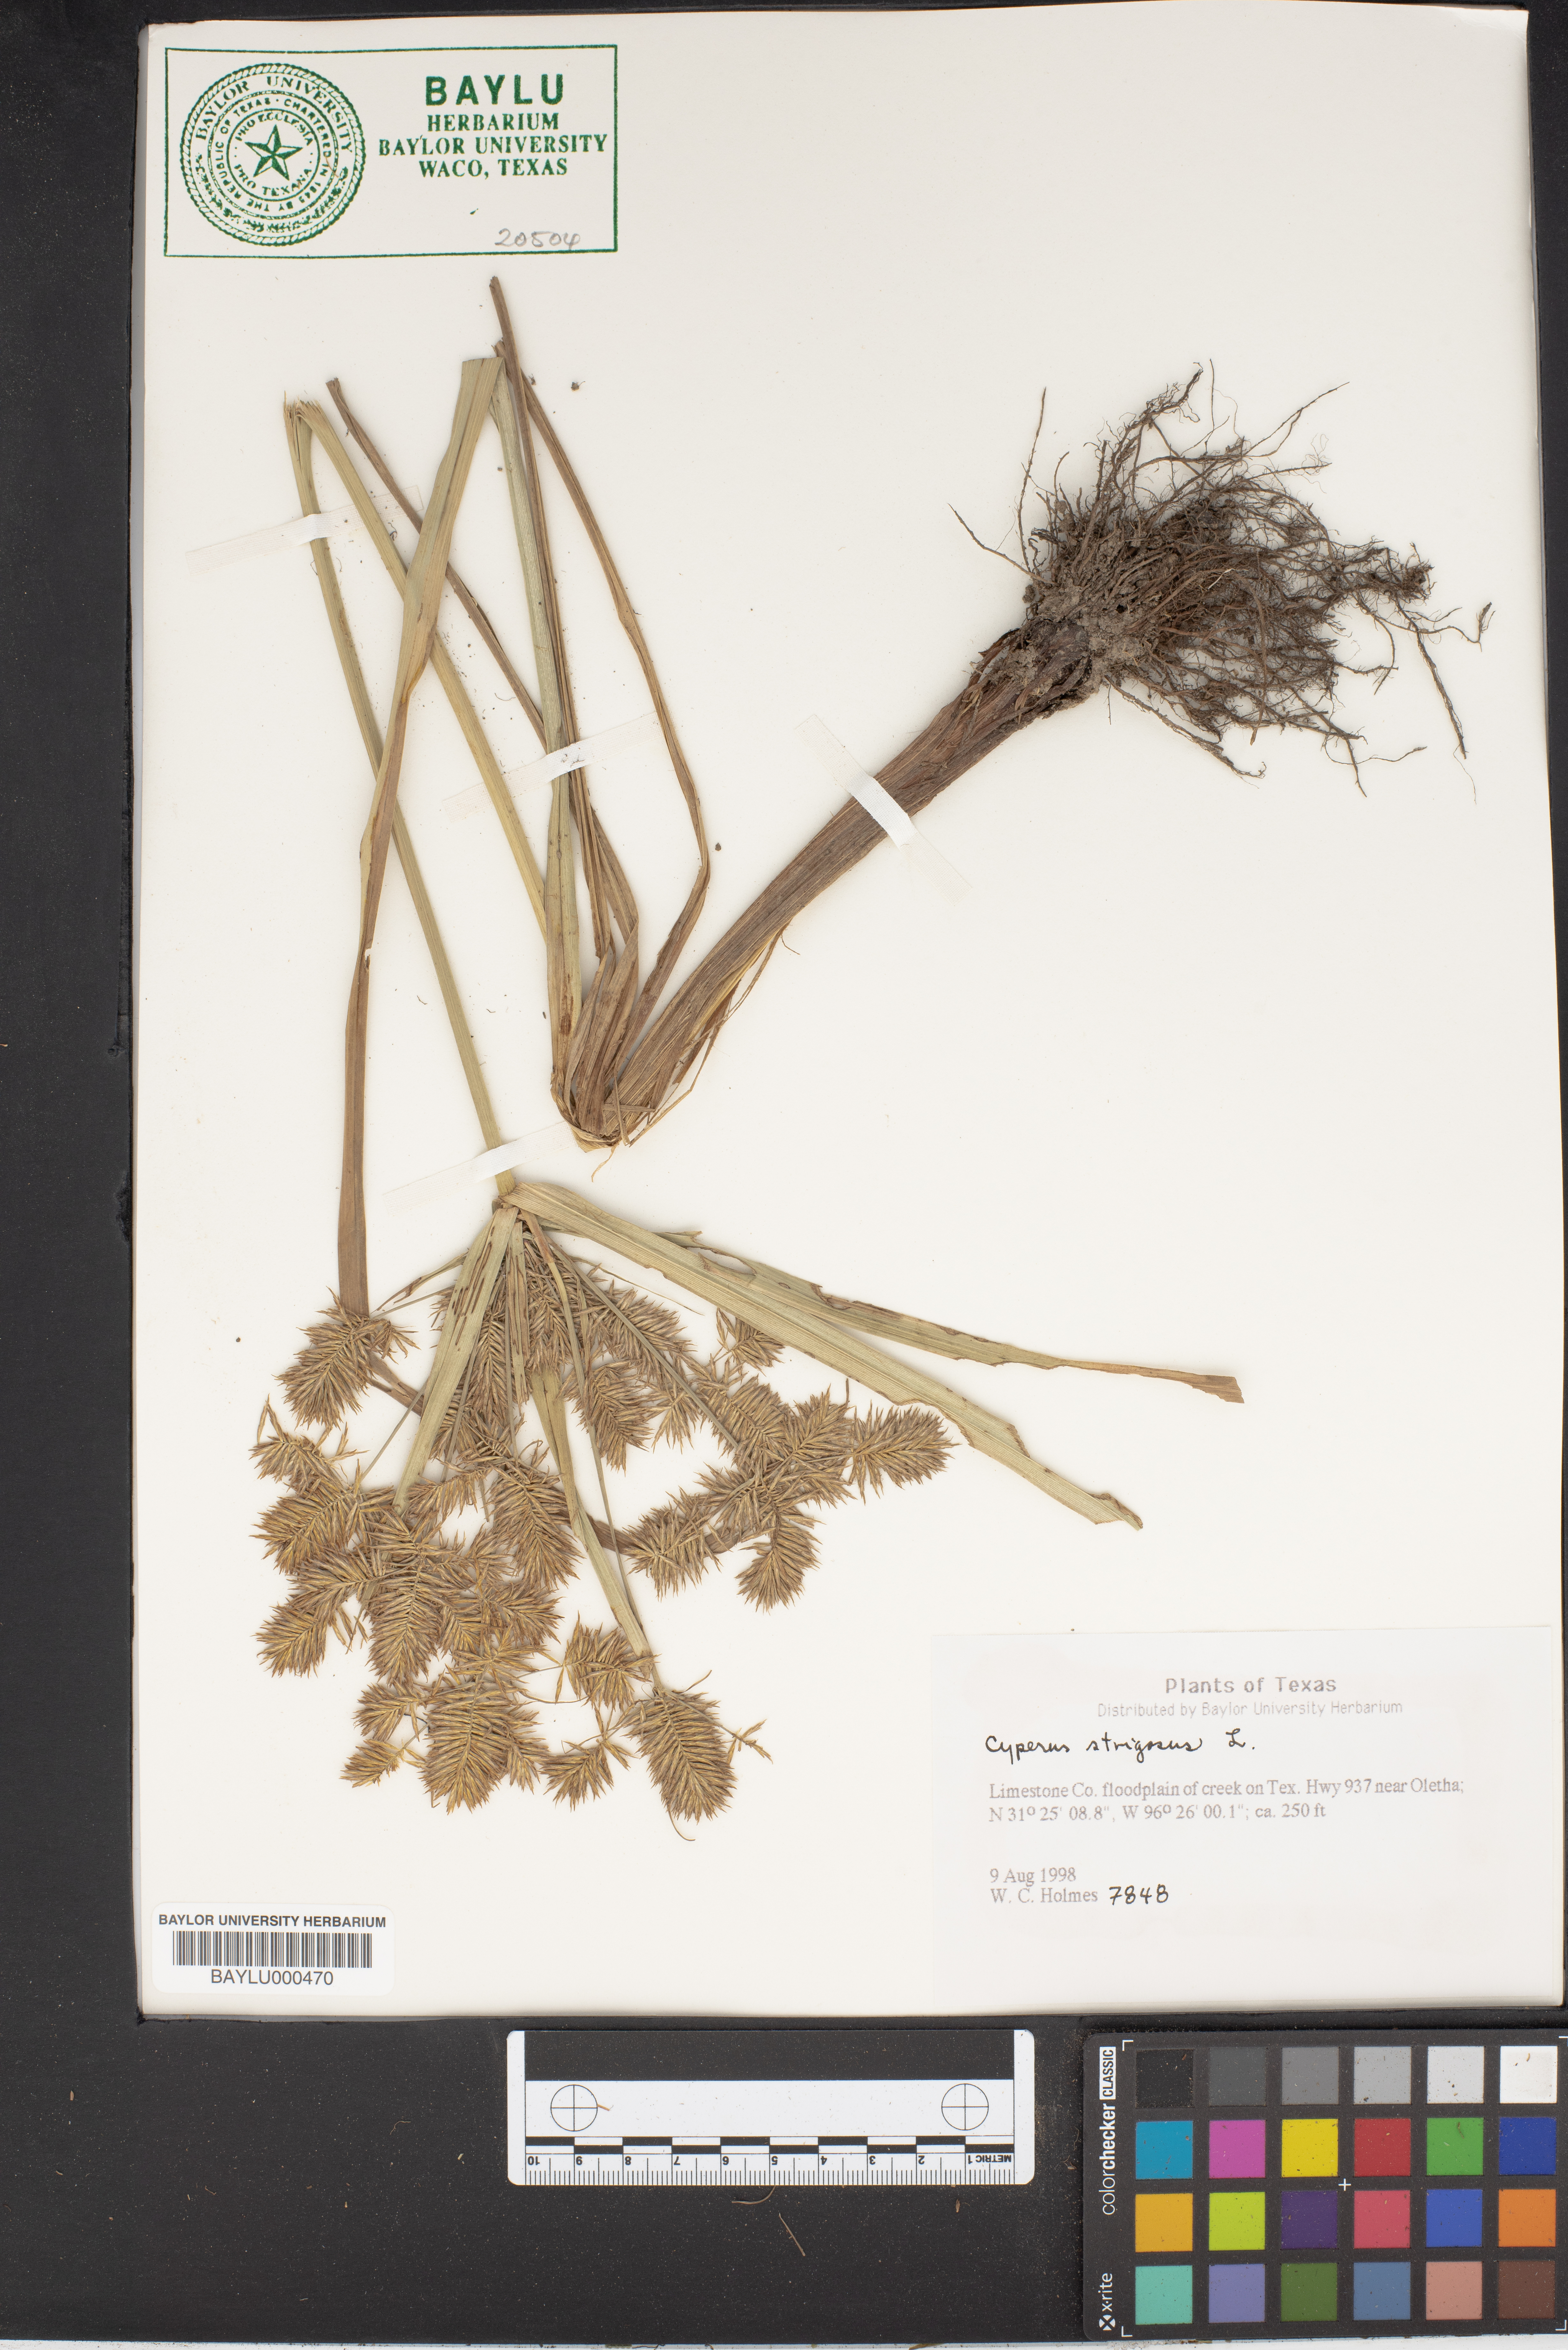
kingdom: Plantae
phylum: Tracheophyta
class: Liliopsida
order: Poales
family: Cyperaceae
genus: Cyperus
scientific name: Cyperus strigosus
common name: False nutsedge
